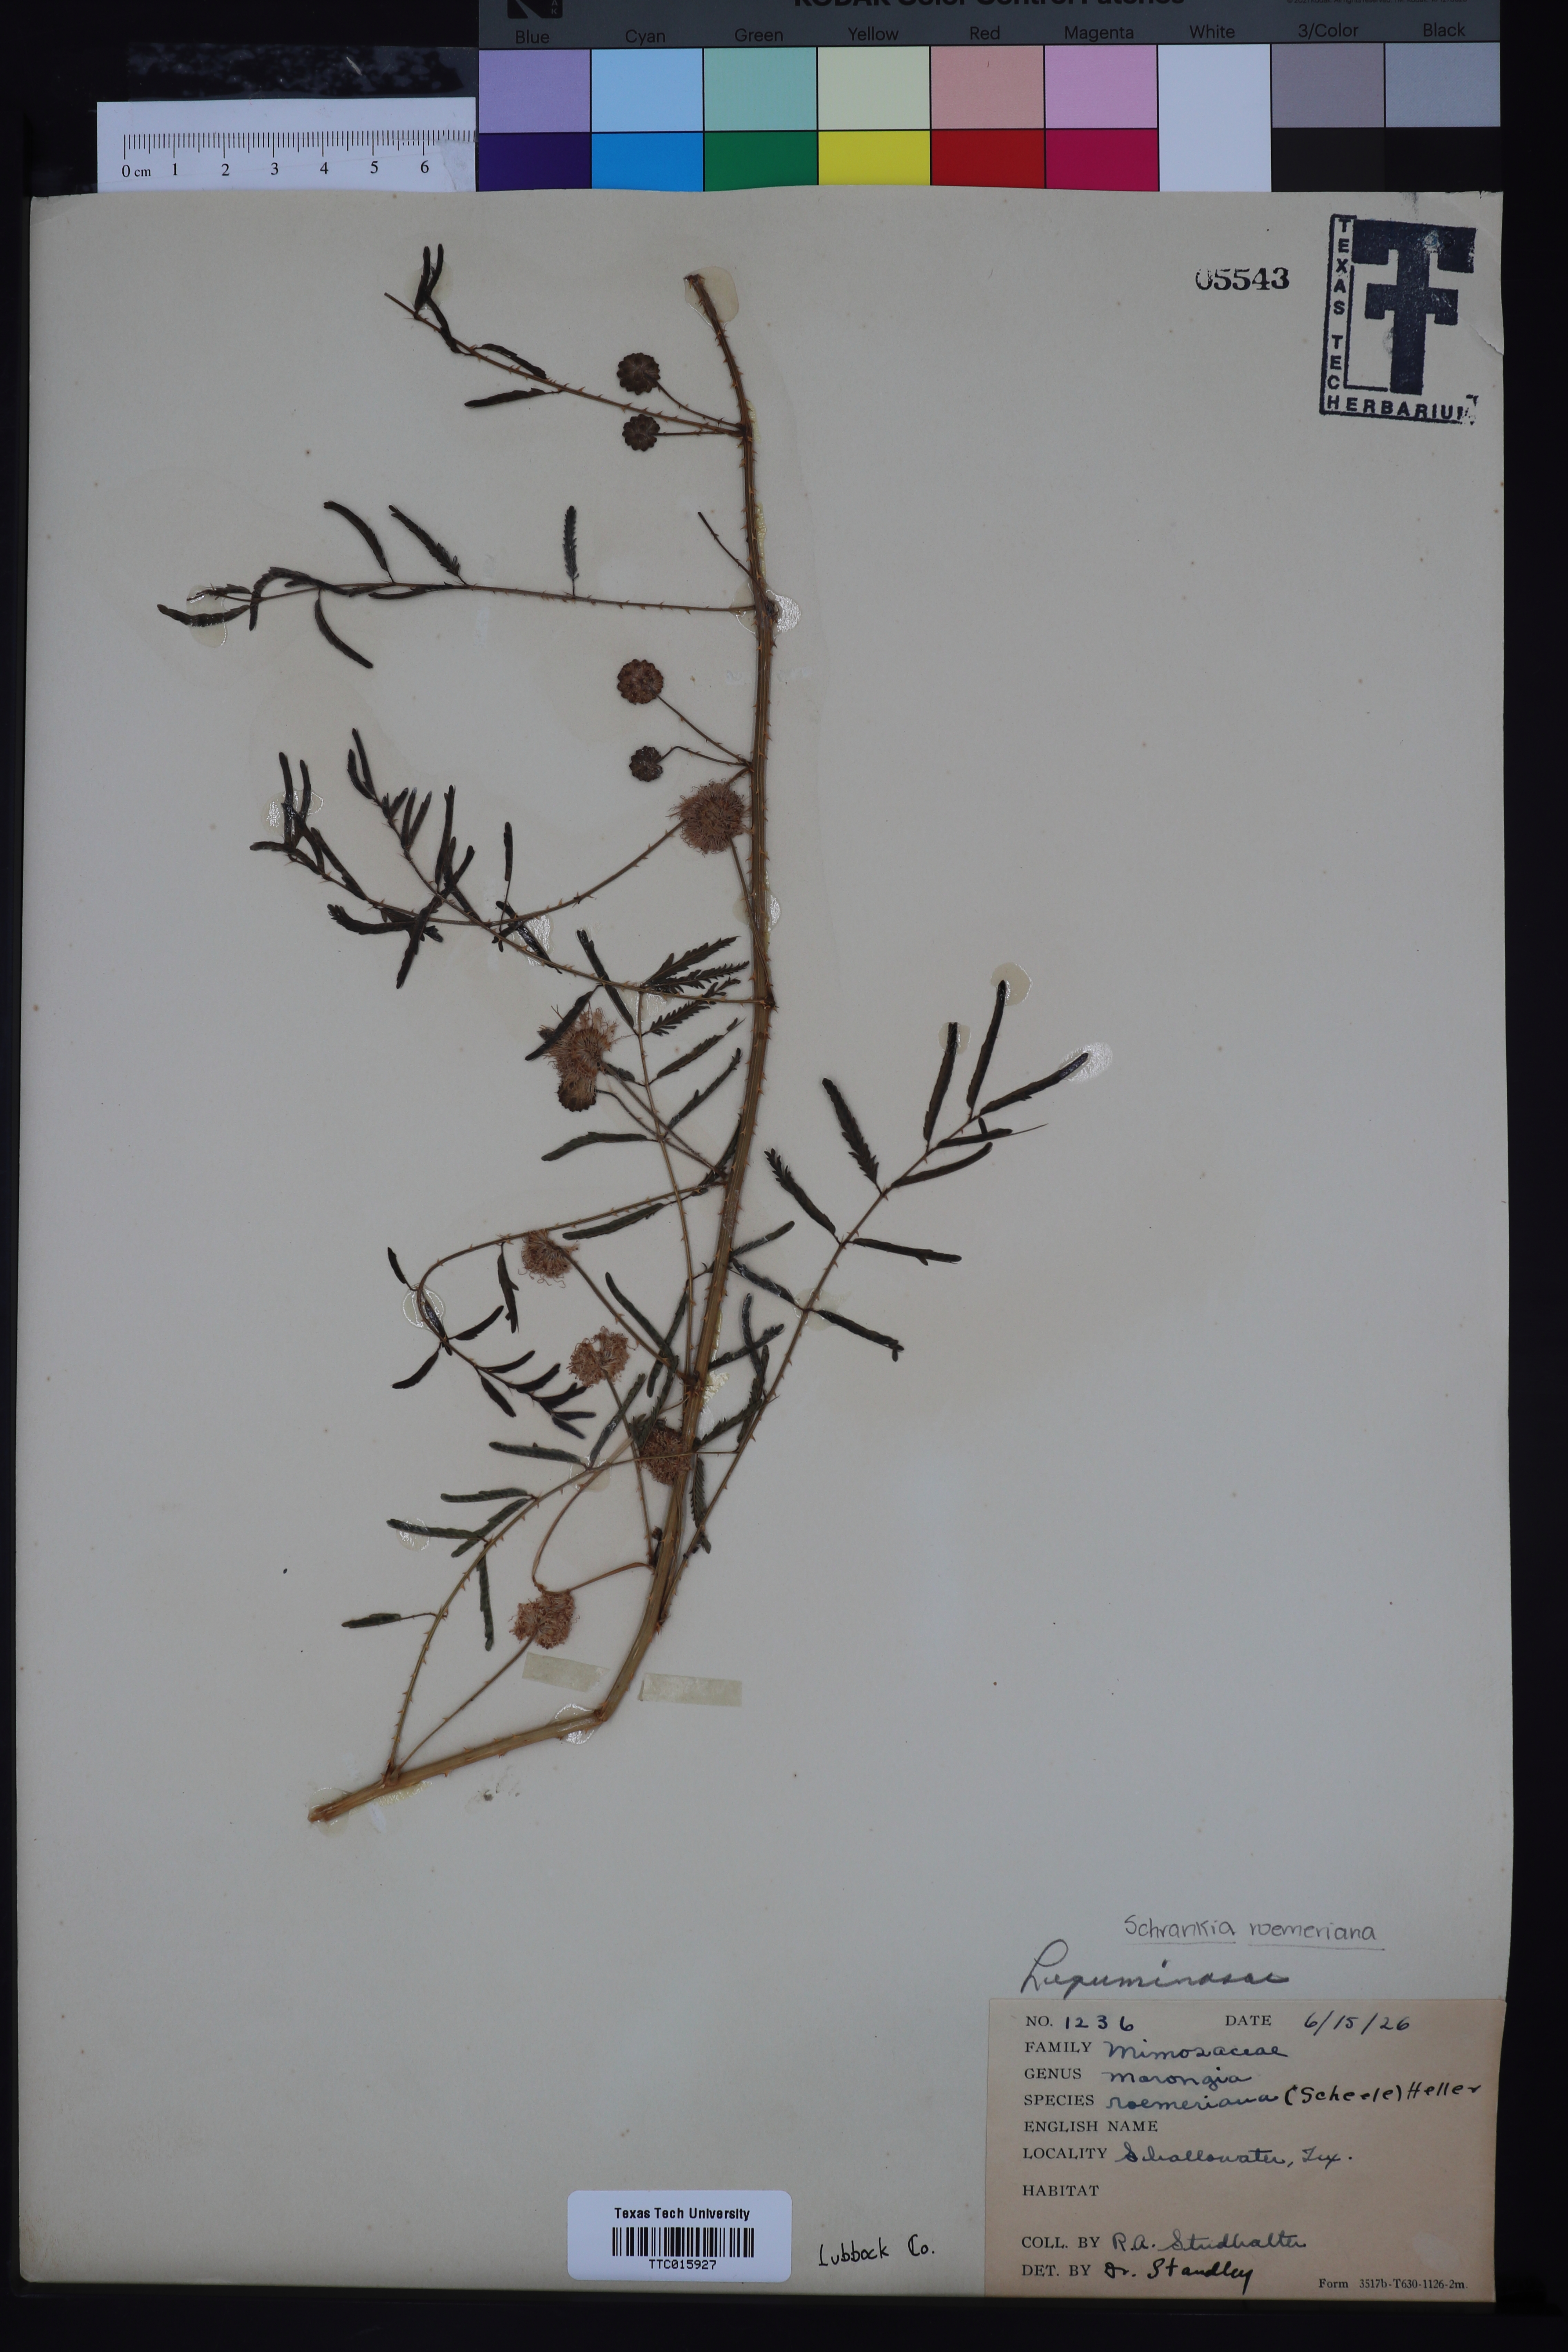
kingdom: Plantae
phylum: Tracheophyta
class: Magnoliopsida
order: Fabales
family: Fabaceae
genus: Mimosa
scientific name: Mimosa quadrivalvis
